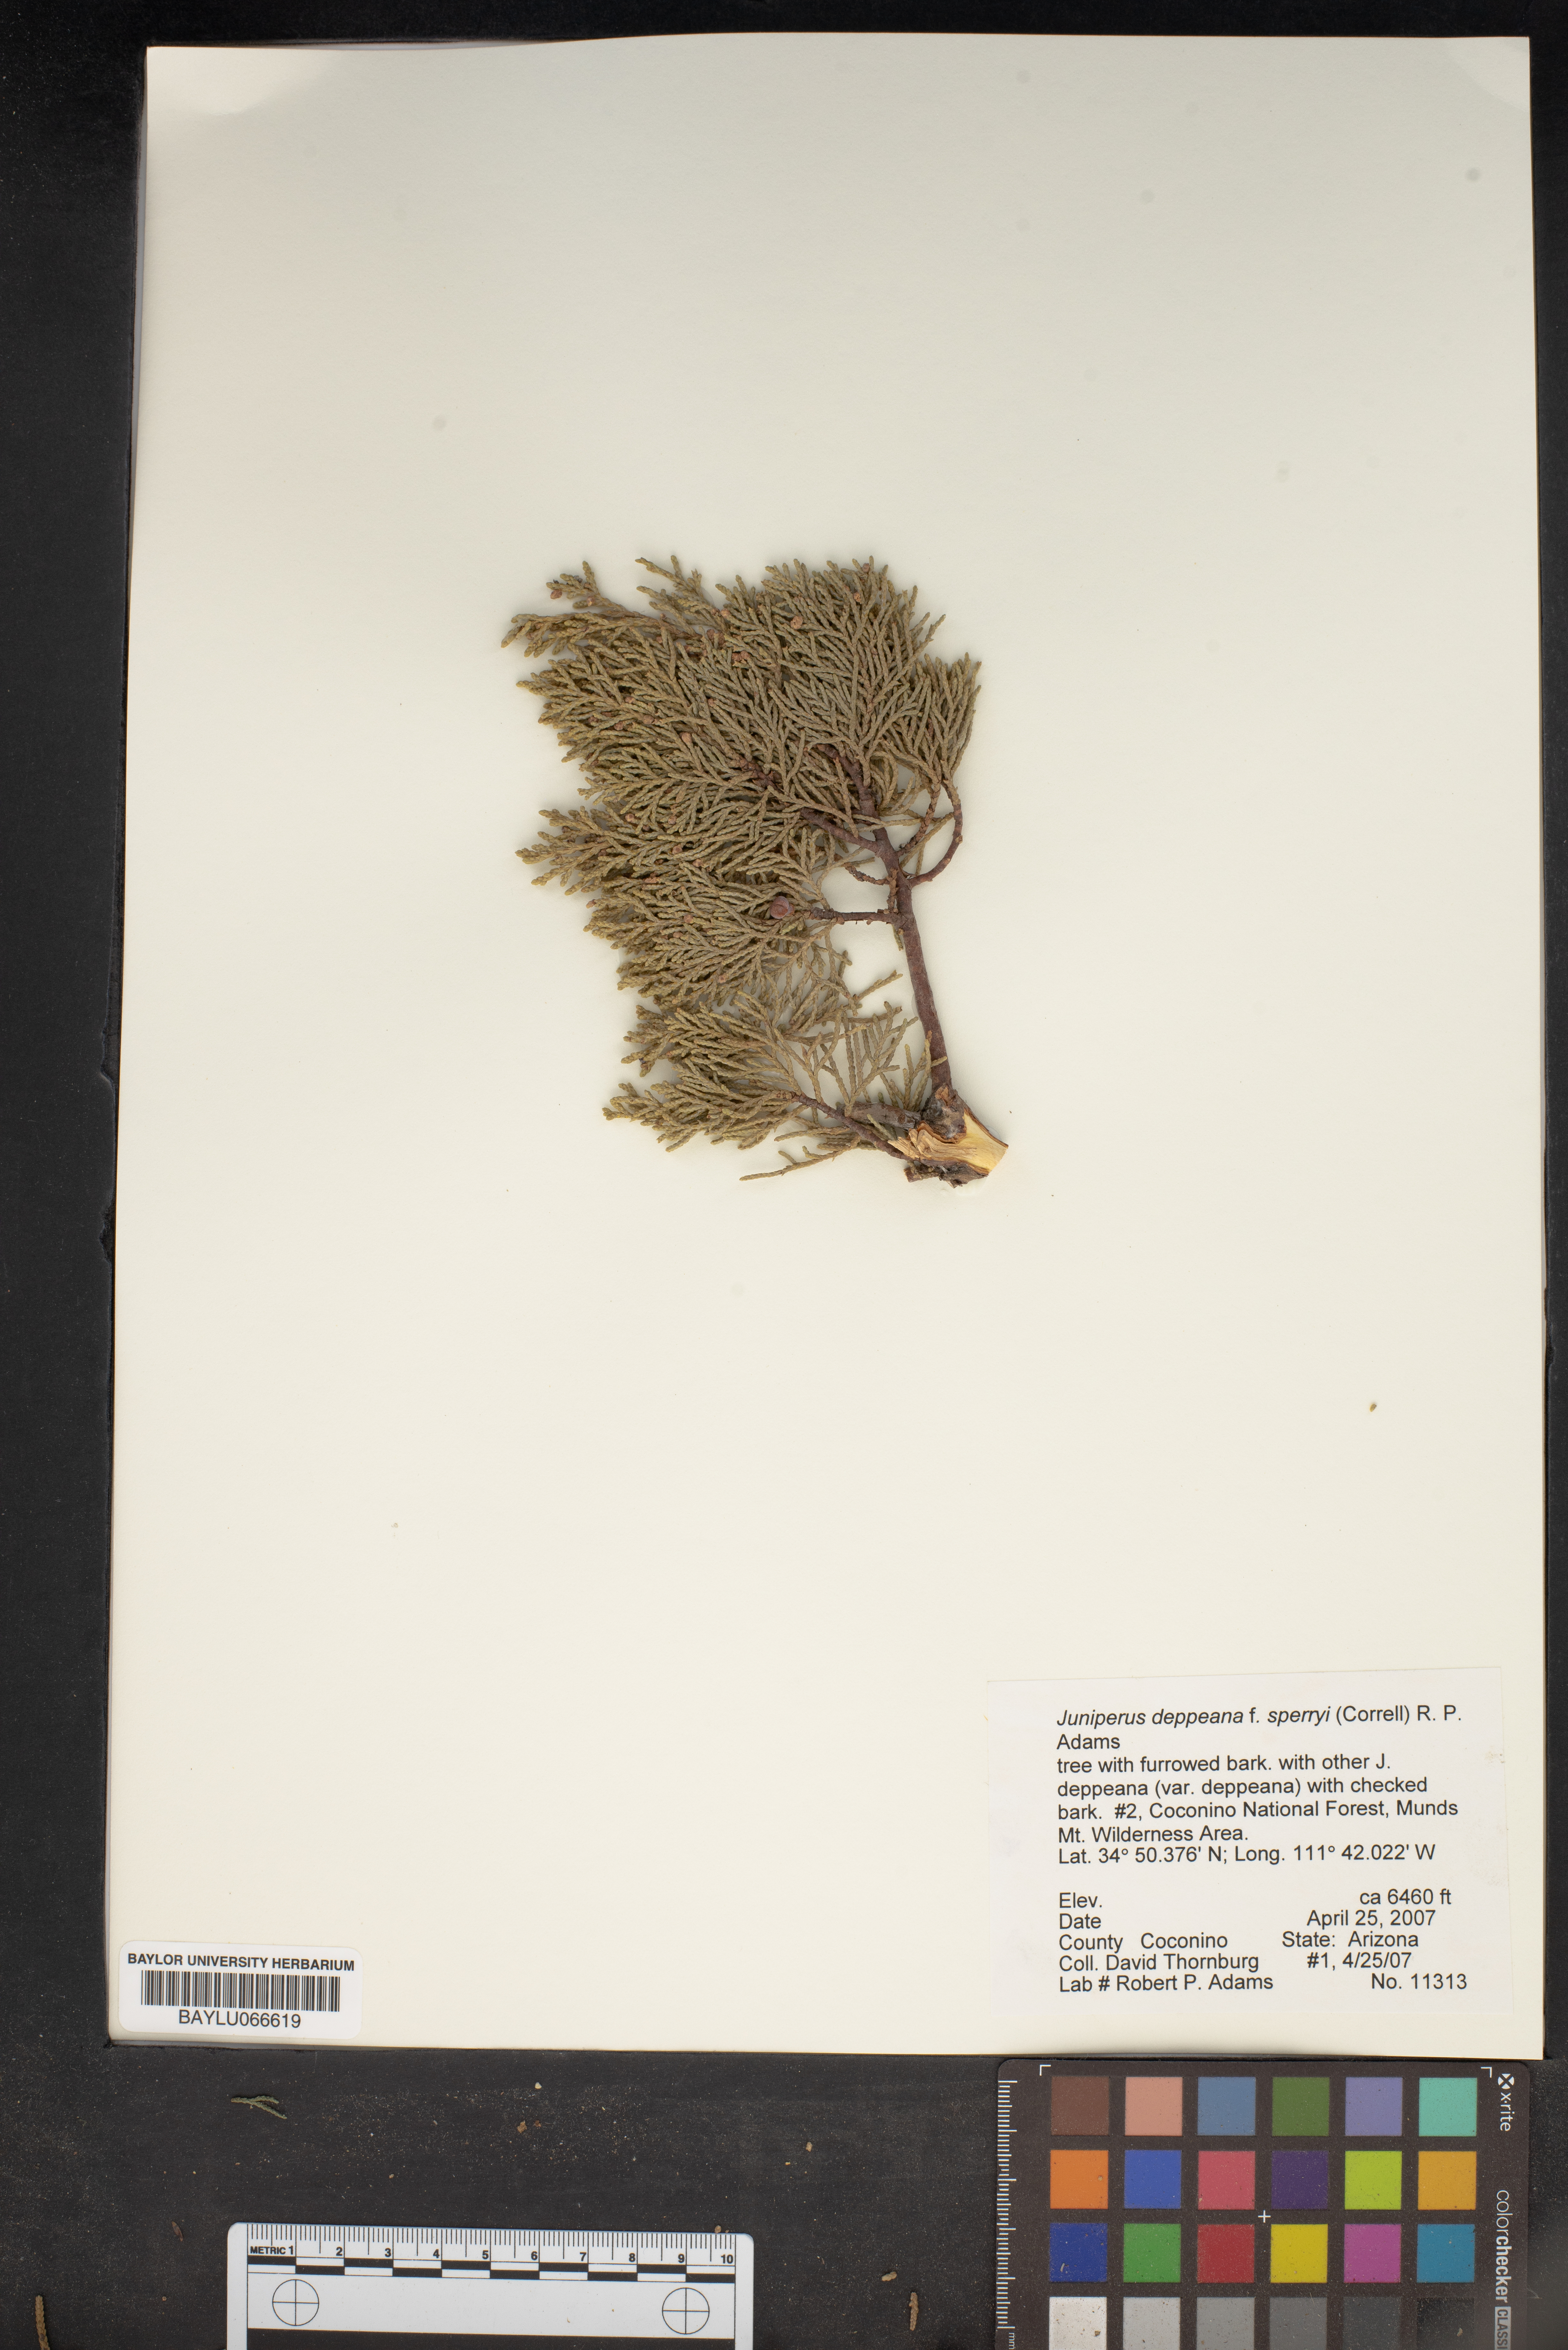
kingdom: Plantae
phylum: Tracheophyta
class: Pinopsida
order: Pinales
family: Cupressaceae
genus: Juniperus
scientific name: Juniperus deppeana
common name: Alligator juniper
